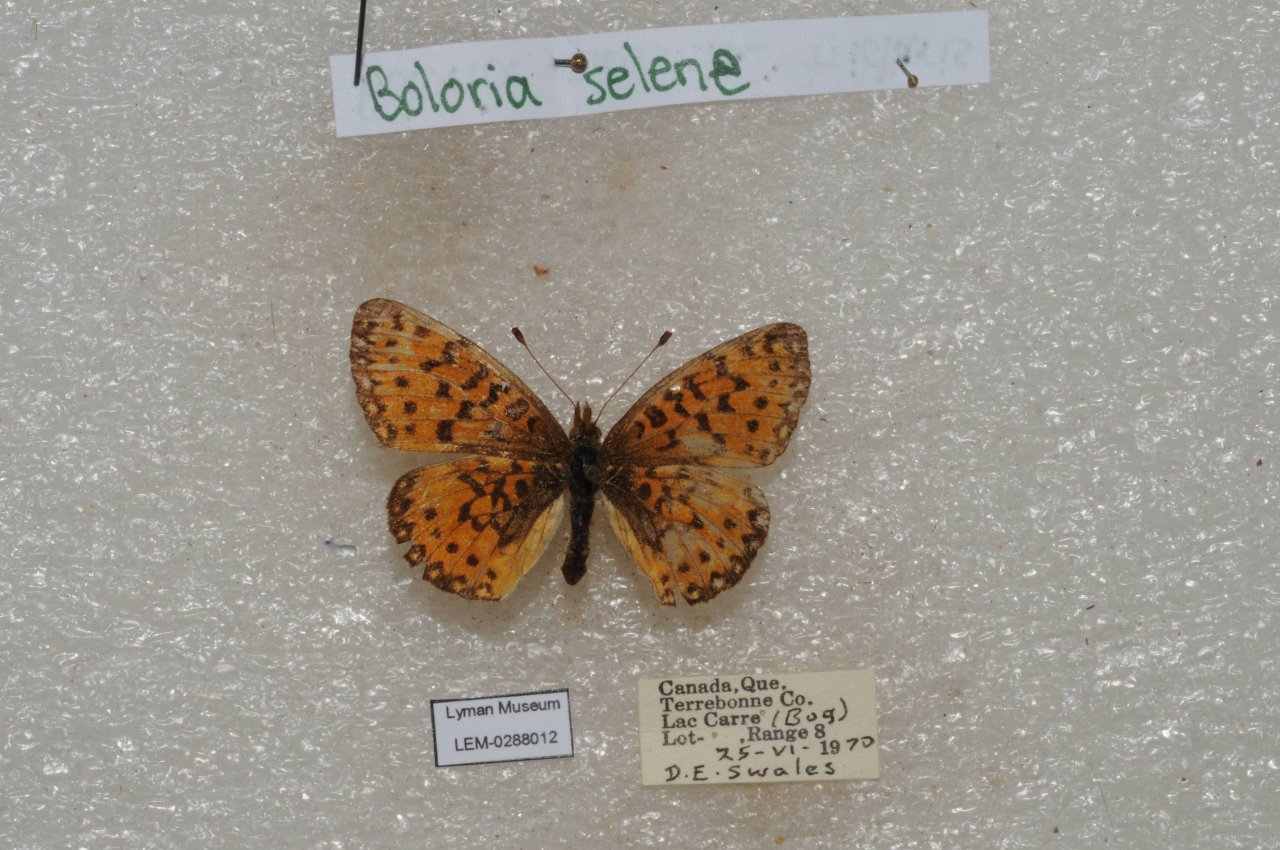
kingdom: Animalia
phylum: Arthropoda
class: Insecta
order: Lepidoptera
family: Nymphalidae
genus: Boloria
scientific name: Boloria selene
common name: Silver-bordered Fritillary
